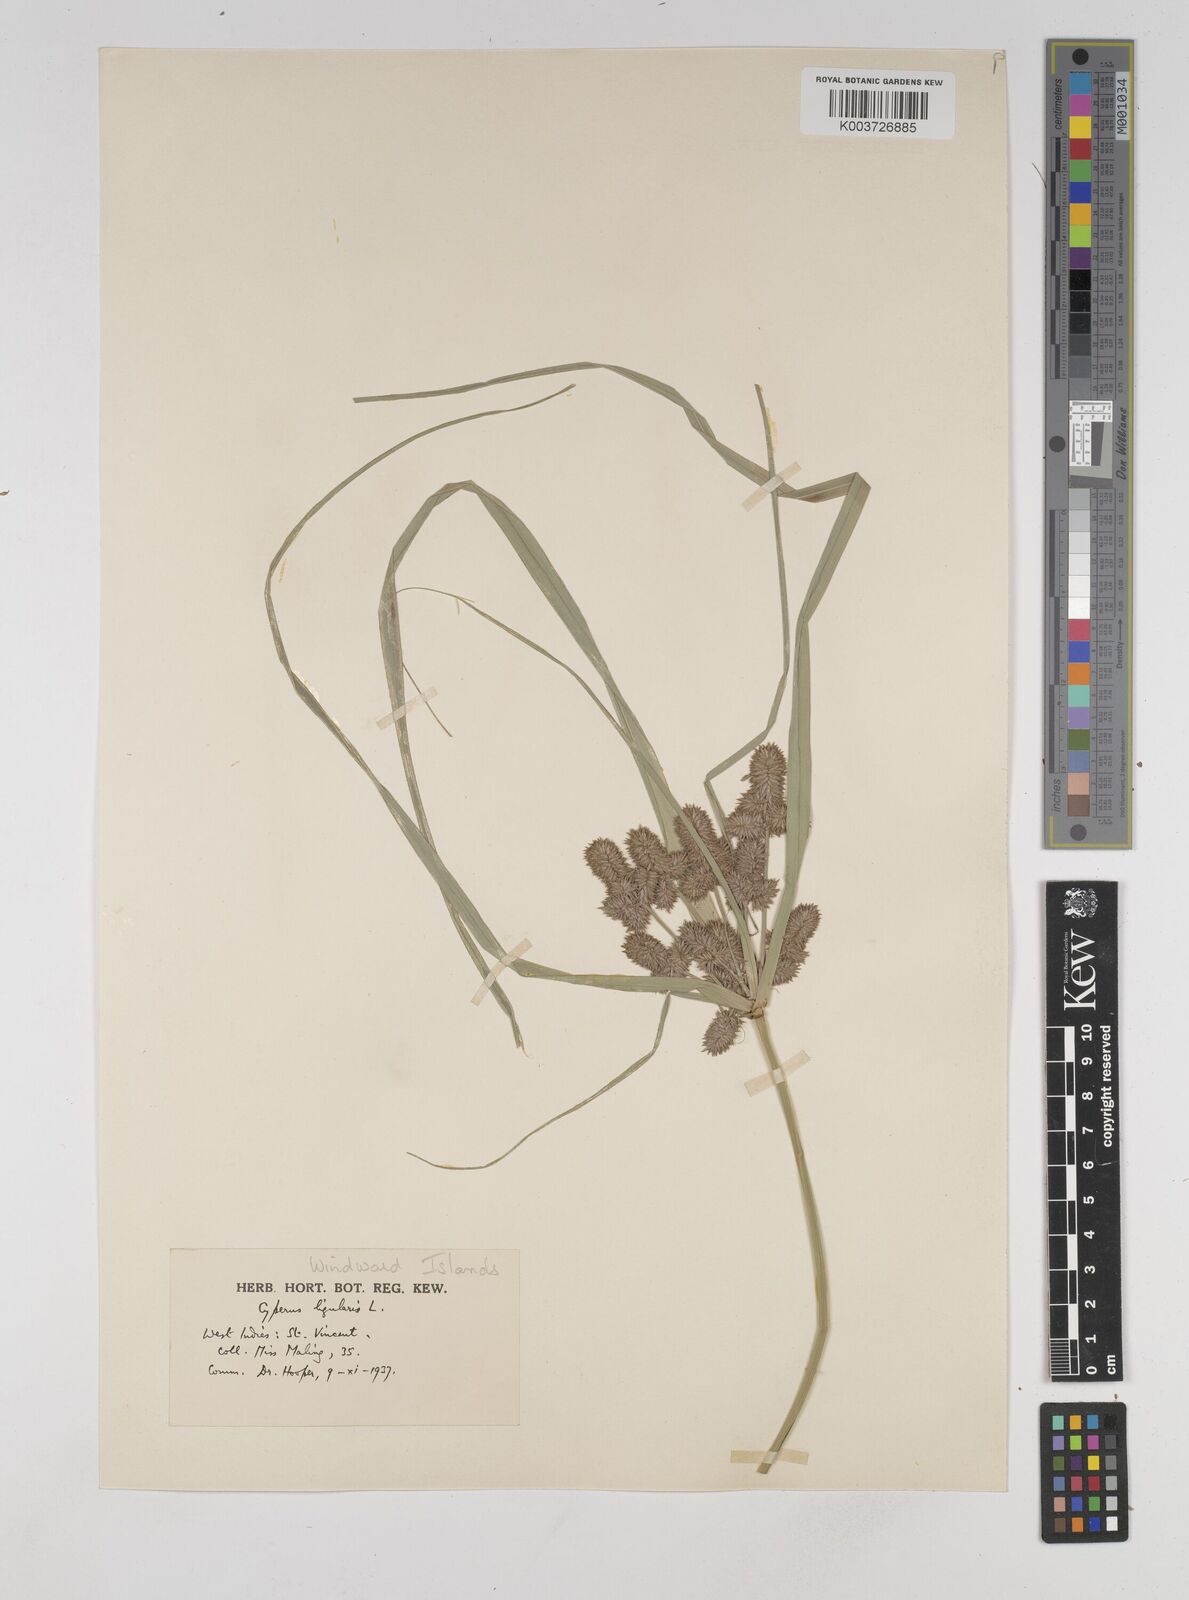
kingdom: Plantae
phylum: Tracheophyta
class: Liliopsida
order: Poales
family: Cyperaceae
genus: Cyperus
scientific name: Cyperus ligularis
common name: Swamp flat sedge
